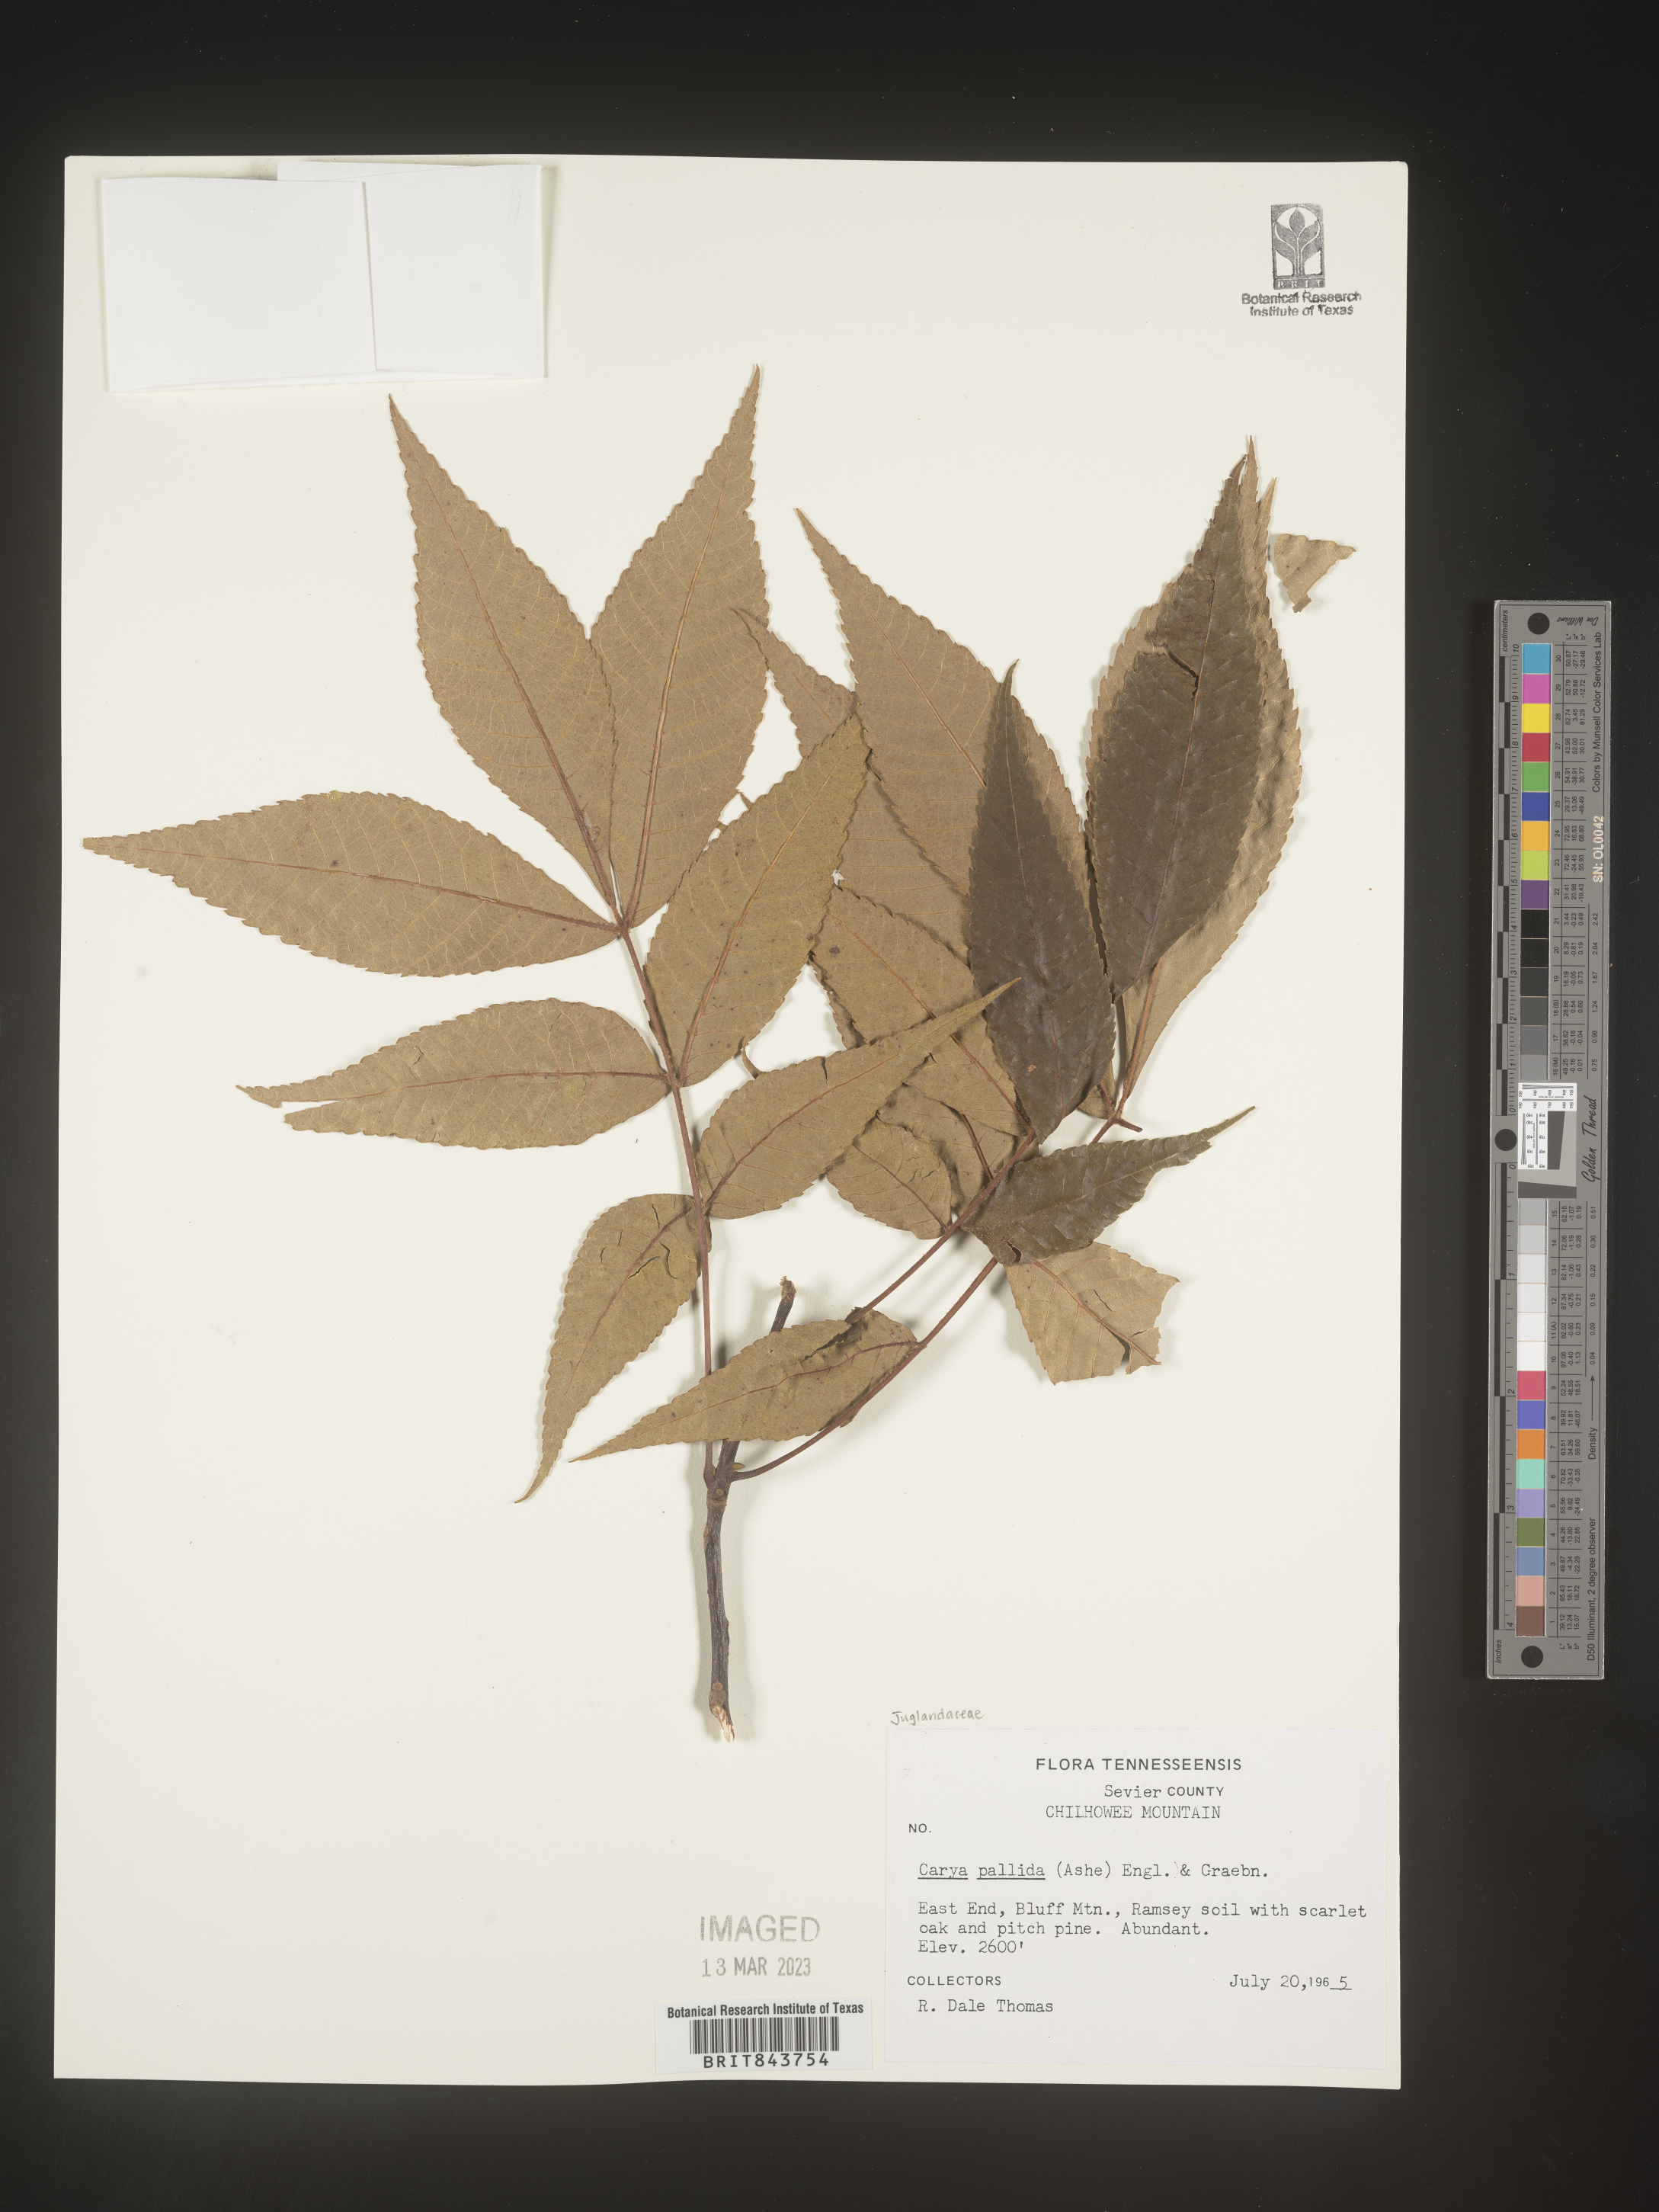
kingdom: Plantae
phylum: Tracheophyta
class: Magnoliopsida
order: Fagales
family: Juglandaceae
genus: Carya
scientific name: Carya pallida
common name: Sand hickory
